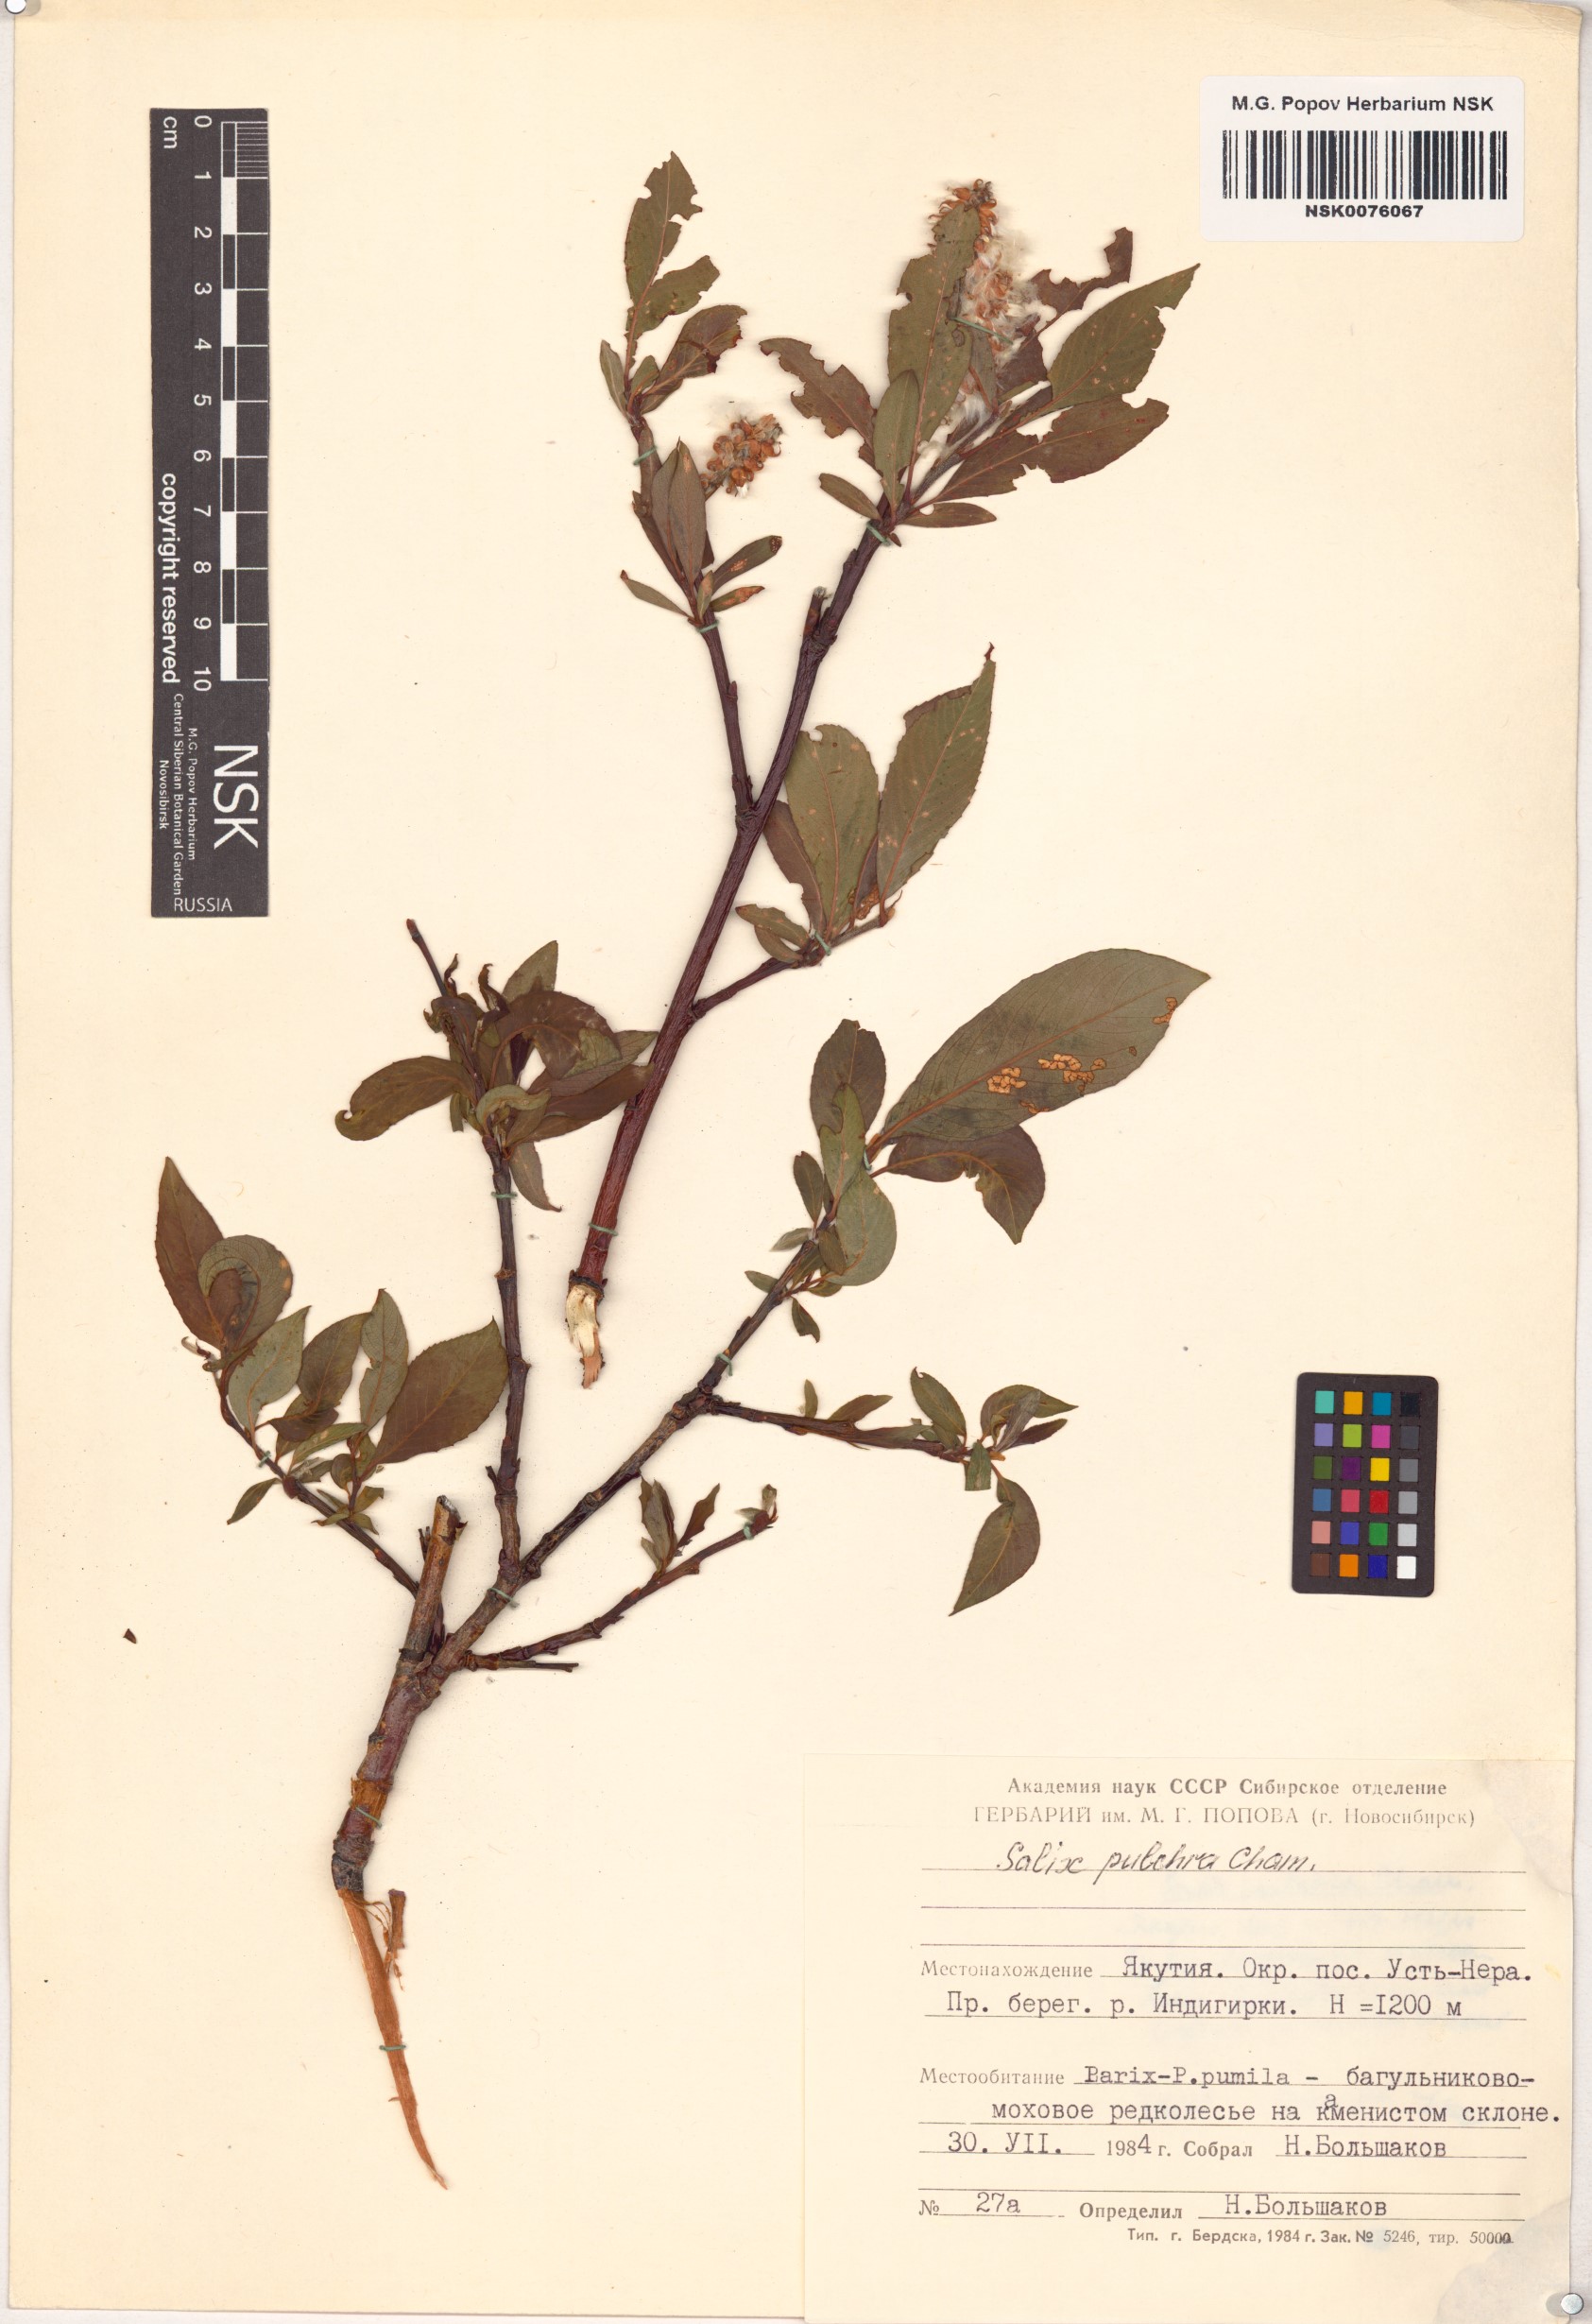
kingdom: Plantae
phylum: Tracheophyta
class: Magnoliopsida
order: Malpighiales
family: Salicaceae
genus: Salix
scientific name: Salix pulchra
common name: Diamond-leaved willow
